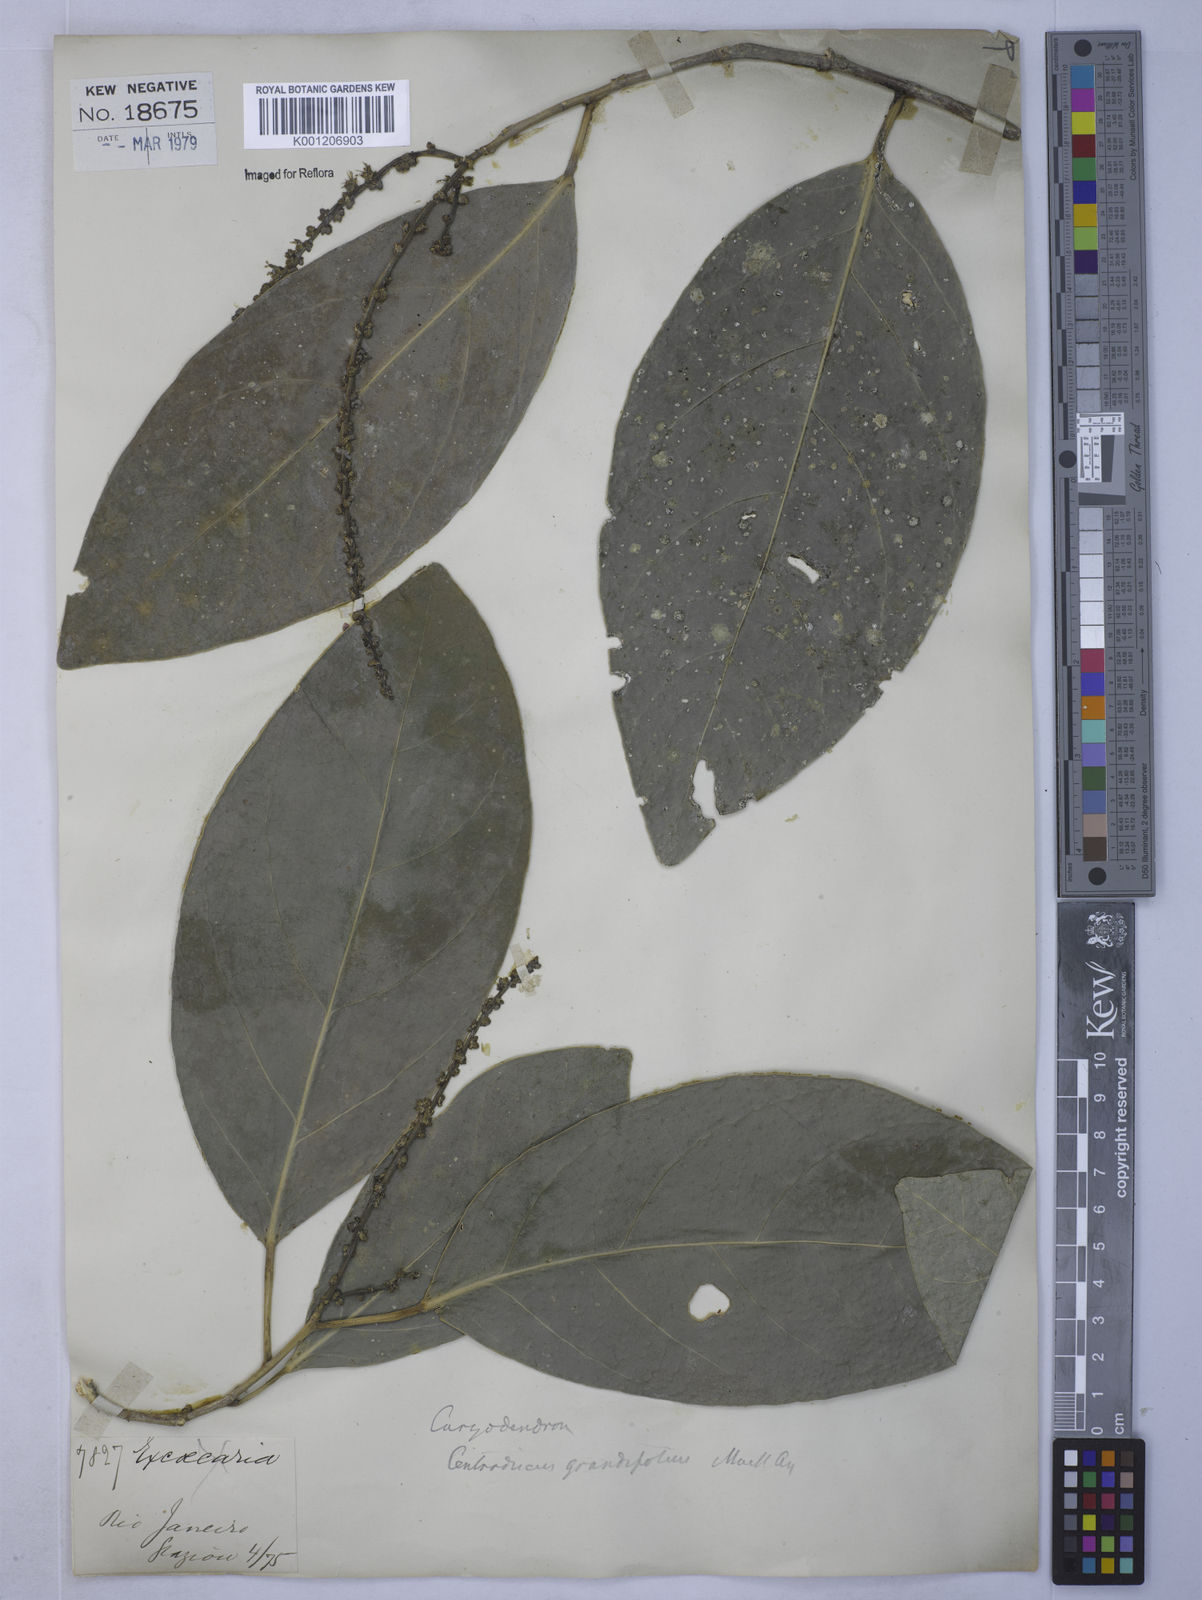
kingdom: Plantae
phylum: Tracheophyta
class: Magnoliopsida
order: Malpighiales
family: Euphorbiaceae
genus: Caryodendron
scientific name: Caryodendron
